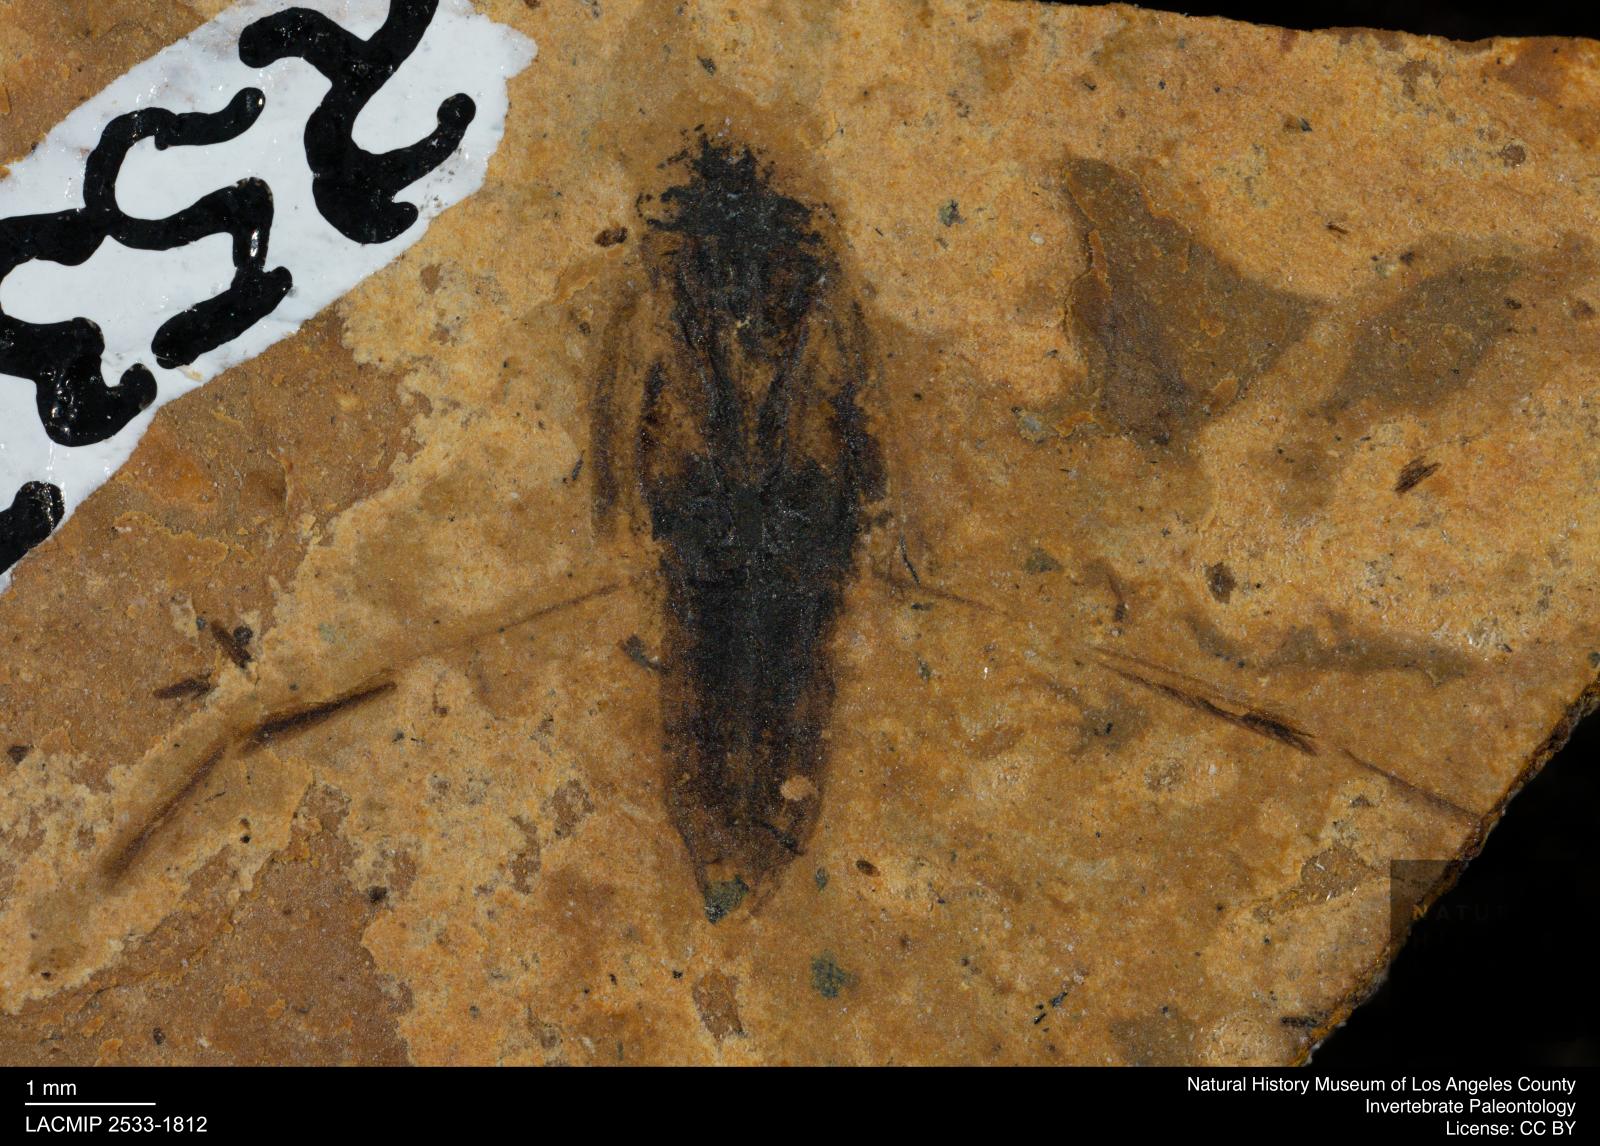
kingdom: Animalia
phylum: Arthropoda
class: Insecta
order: Hemiptera
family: Notonectidae
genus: Notonecta
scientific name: Notonecta
